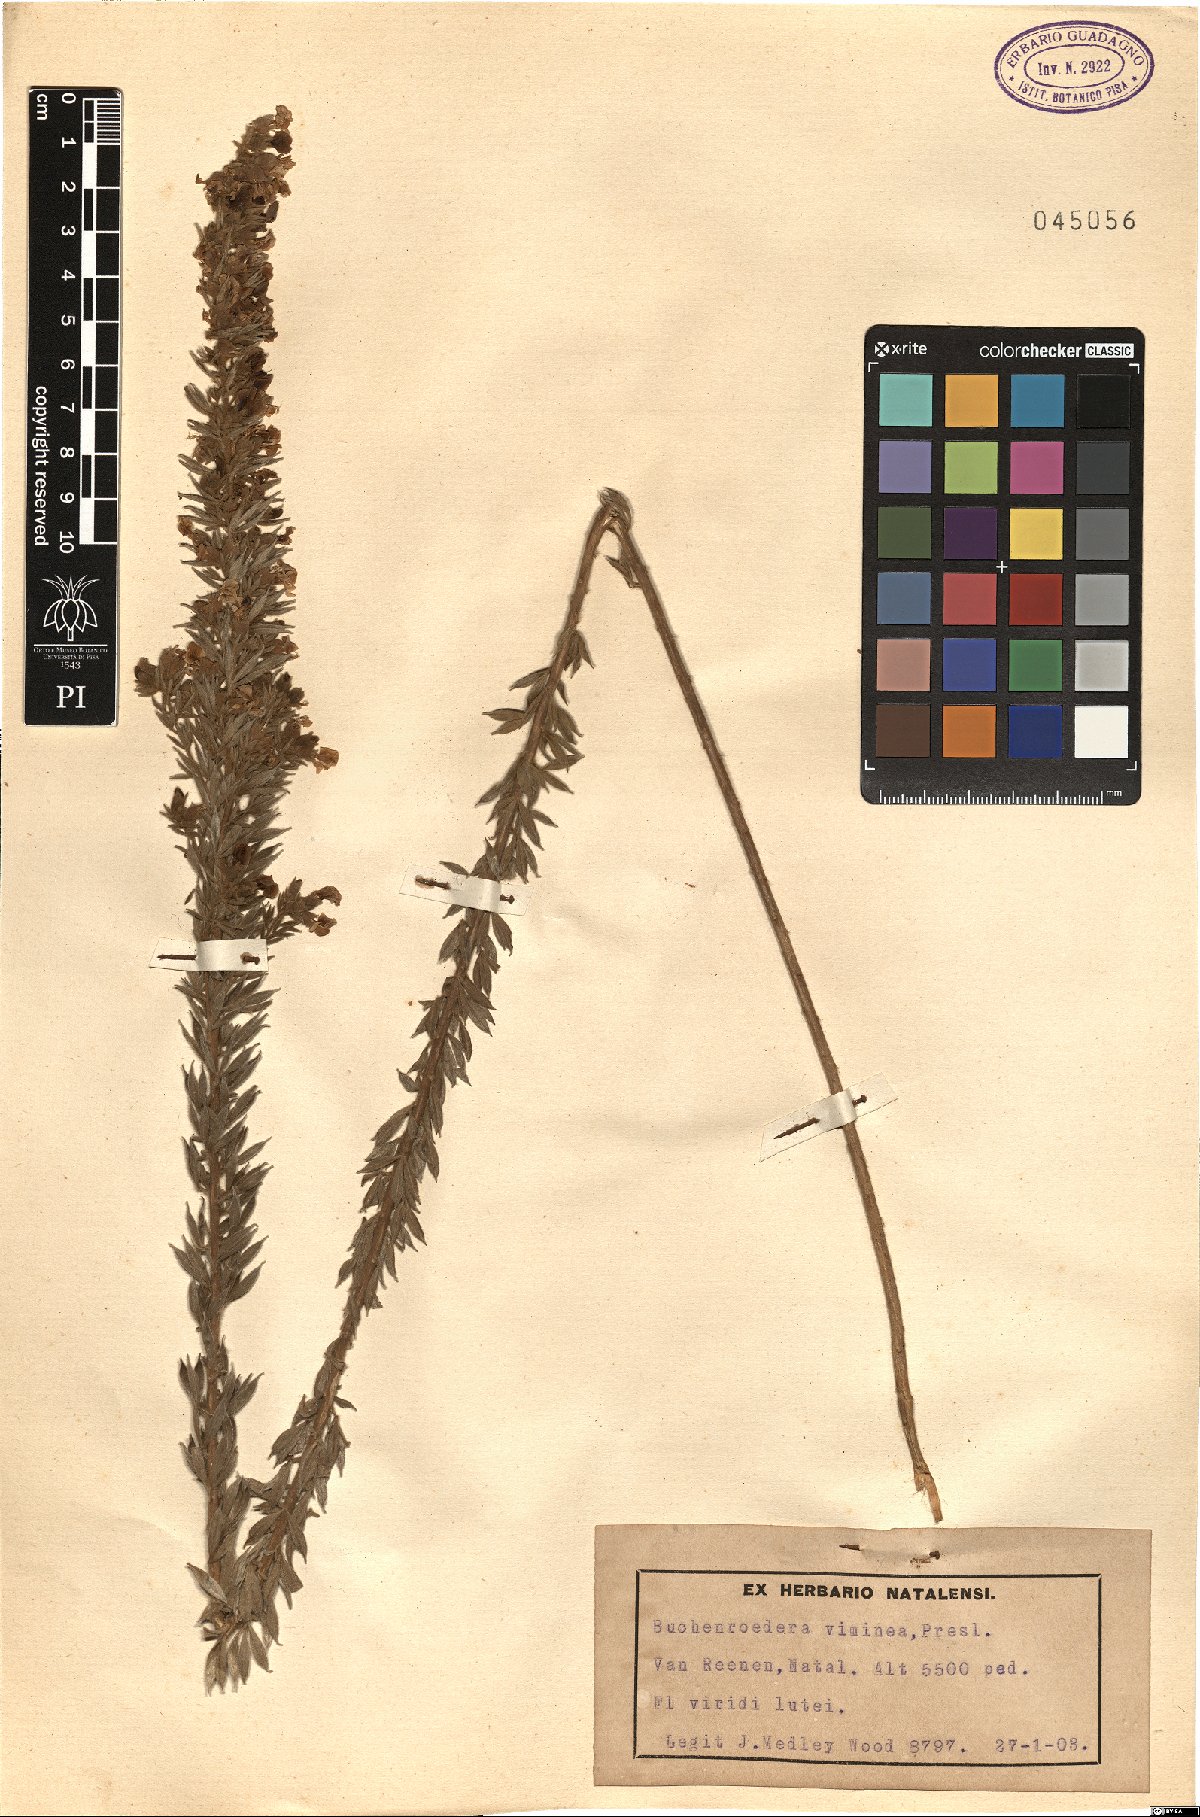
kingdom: Plantae
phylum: Tracheophyta
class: Magnoliopsida
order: Fabales
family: Fabaceae
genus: Lotononis
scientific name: Lotononis viminea
